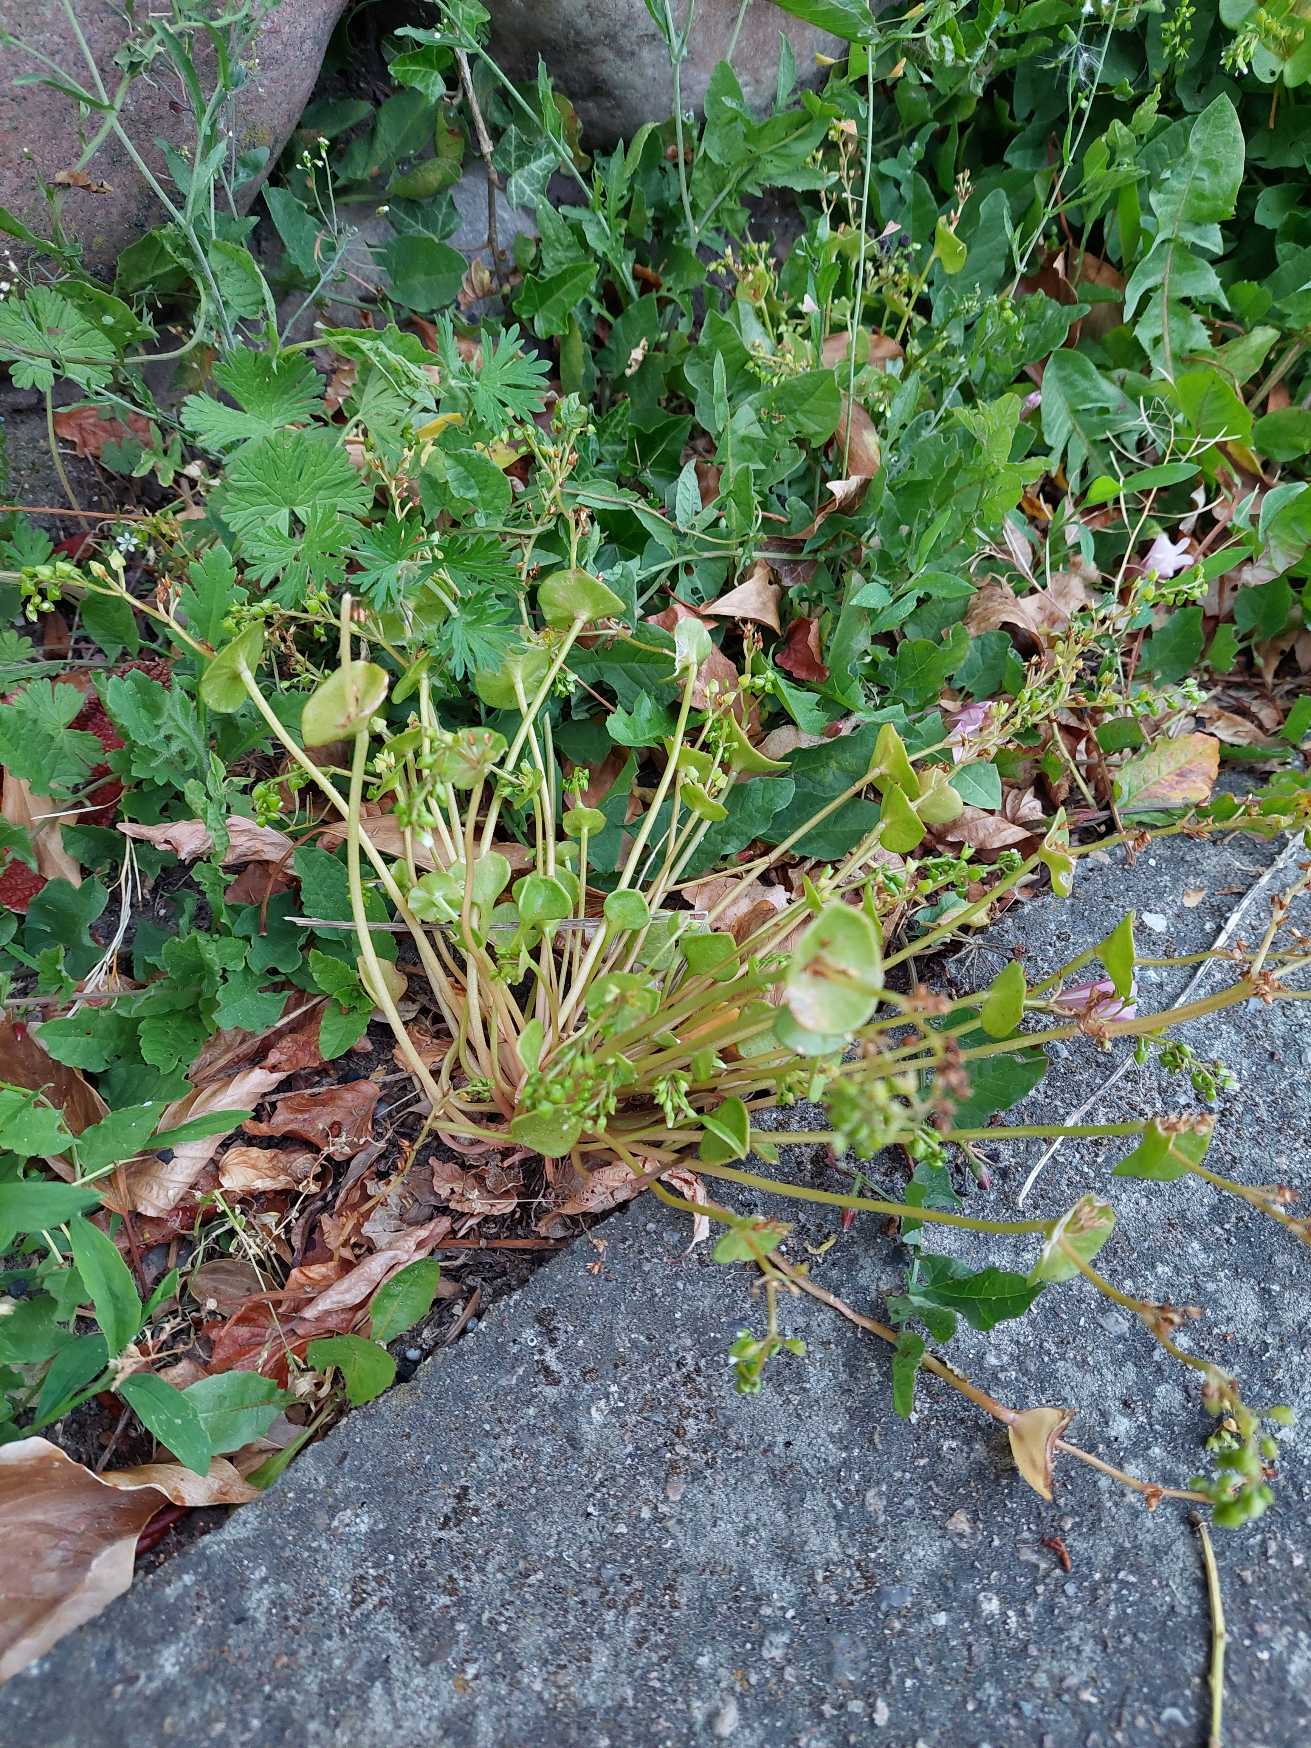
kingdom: Plantae
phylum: Tracheophyta
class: Magnoliopsida
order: Caryophyllales
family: Montiaceae
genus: Claytonia
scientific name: Claytonia perfoliata
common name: Spiselig vinterportulak
